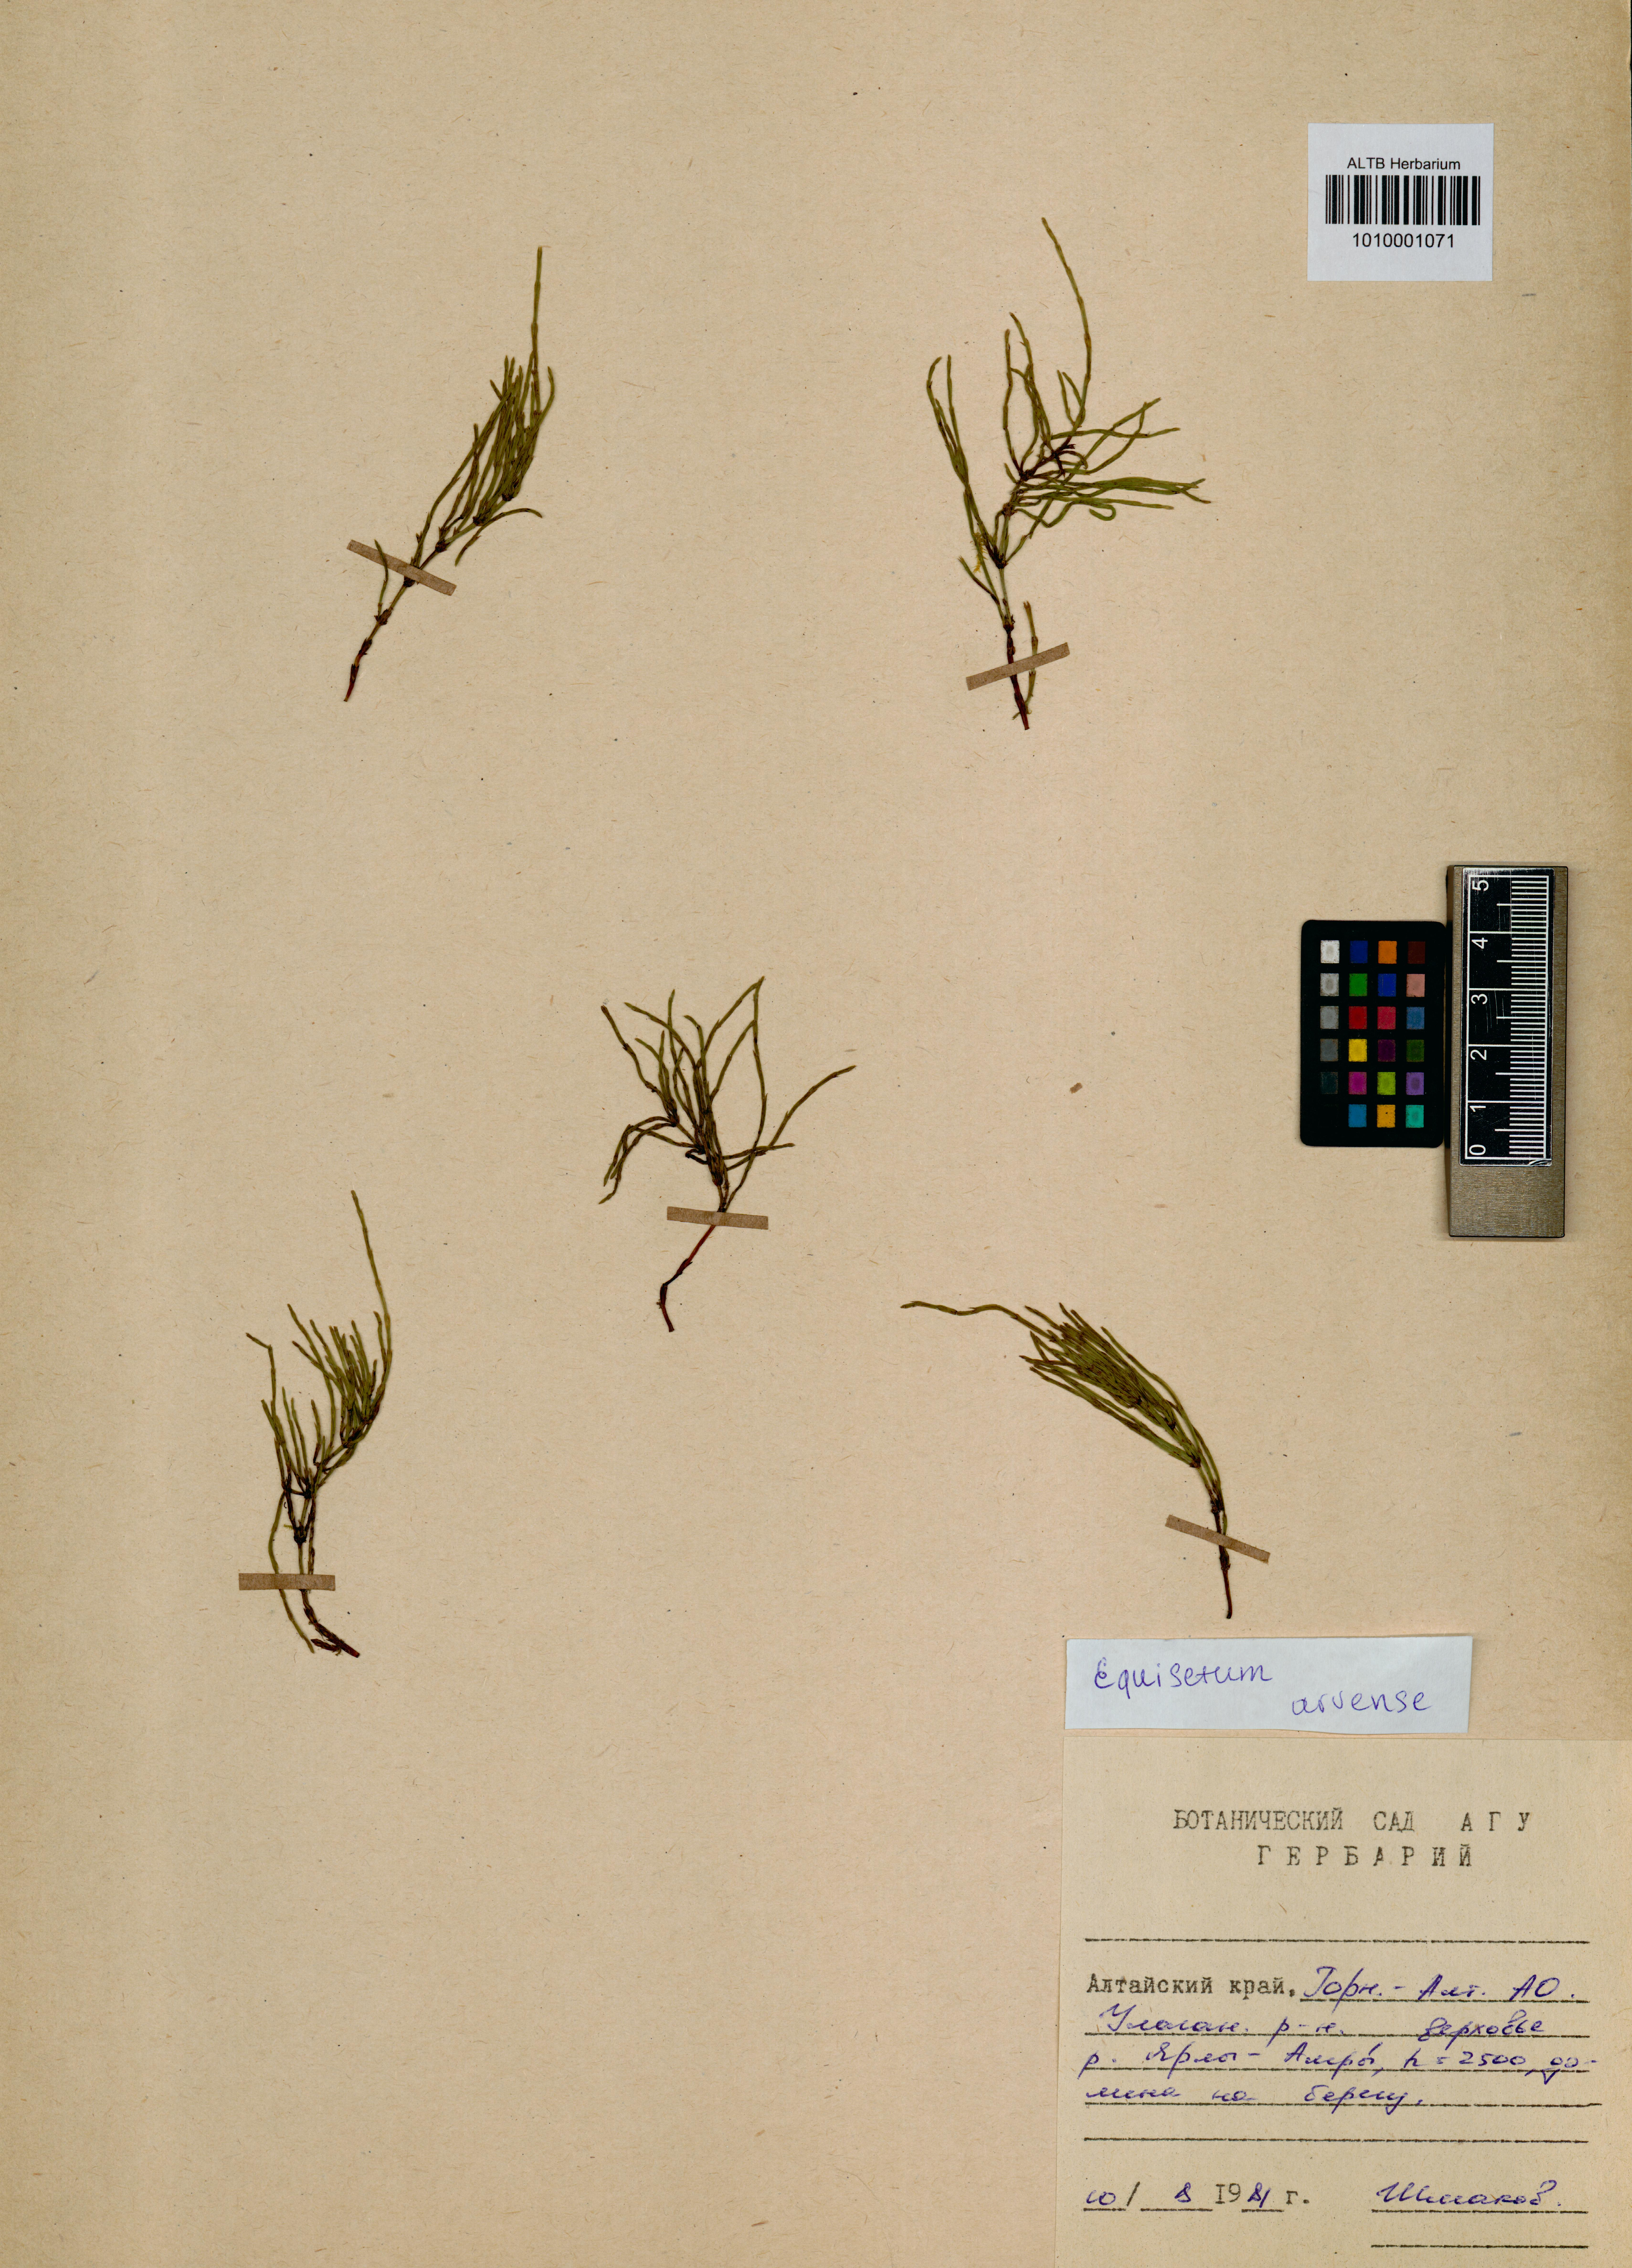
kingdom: Plantae
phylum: Tracheophyta
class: Polypodiopsida
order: Equisetales
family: Equisetaceae
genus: Equisetum
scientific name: Equisetum arvense
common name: Field horsetail
